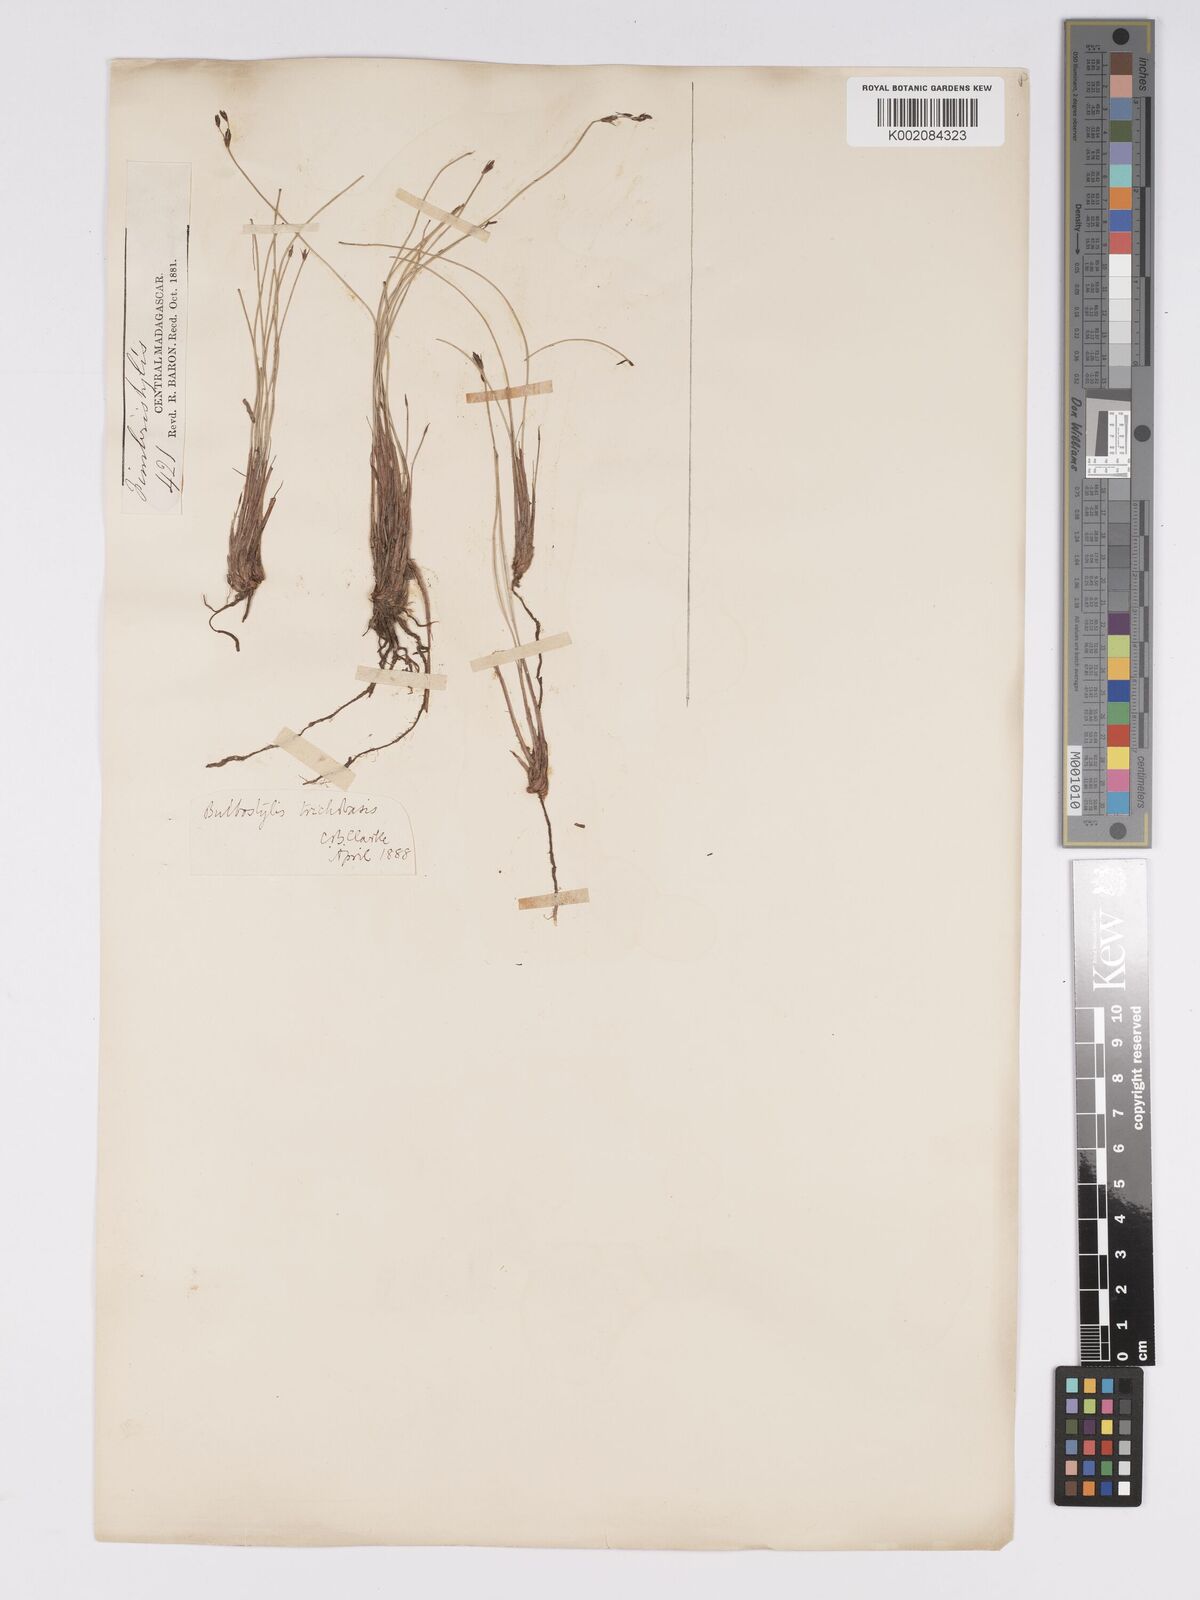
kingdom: Plantae
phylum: Tracheophyta
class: Liliopsida
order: Poales
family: Cyperaceae
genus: Bulbostylis
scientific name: Bulbostylis trichobasis
